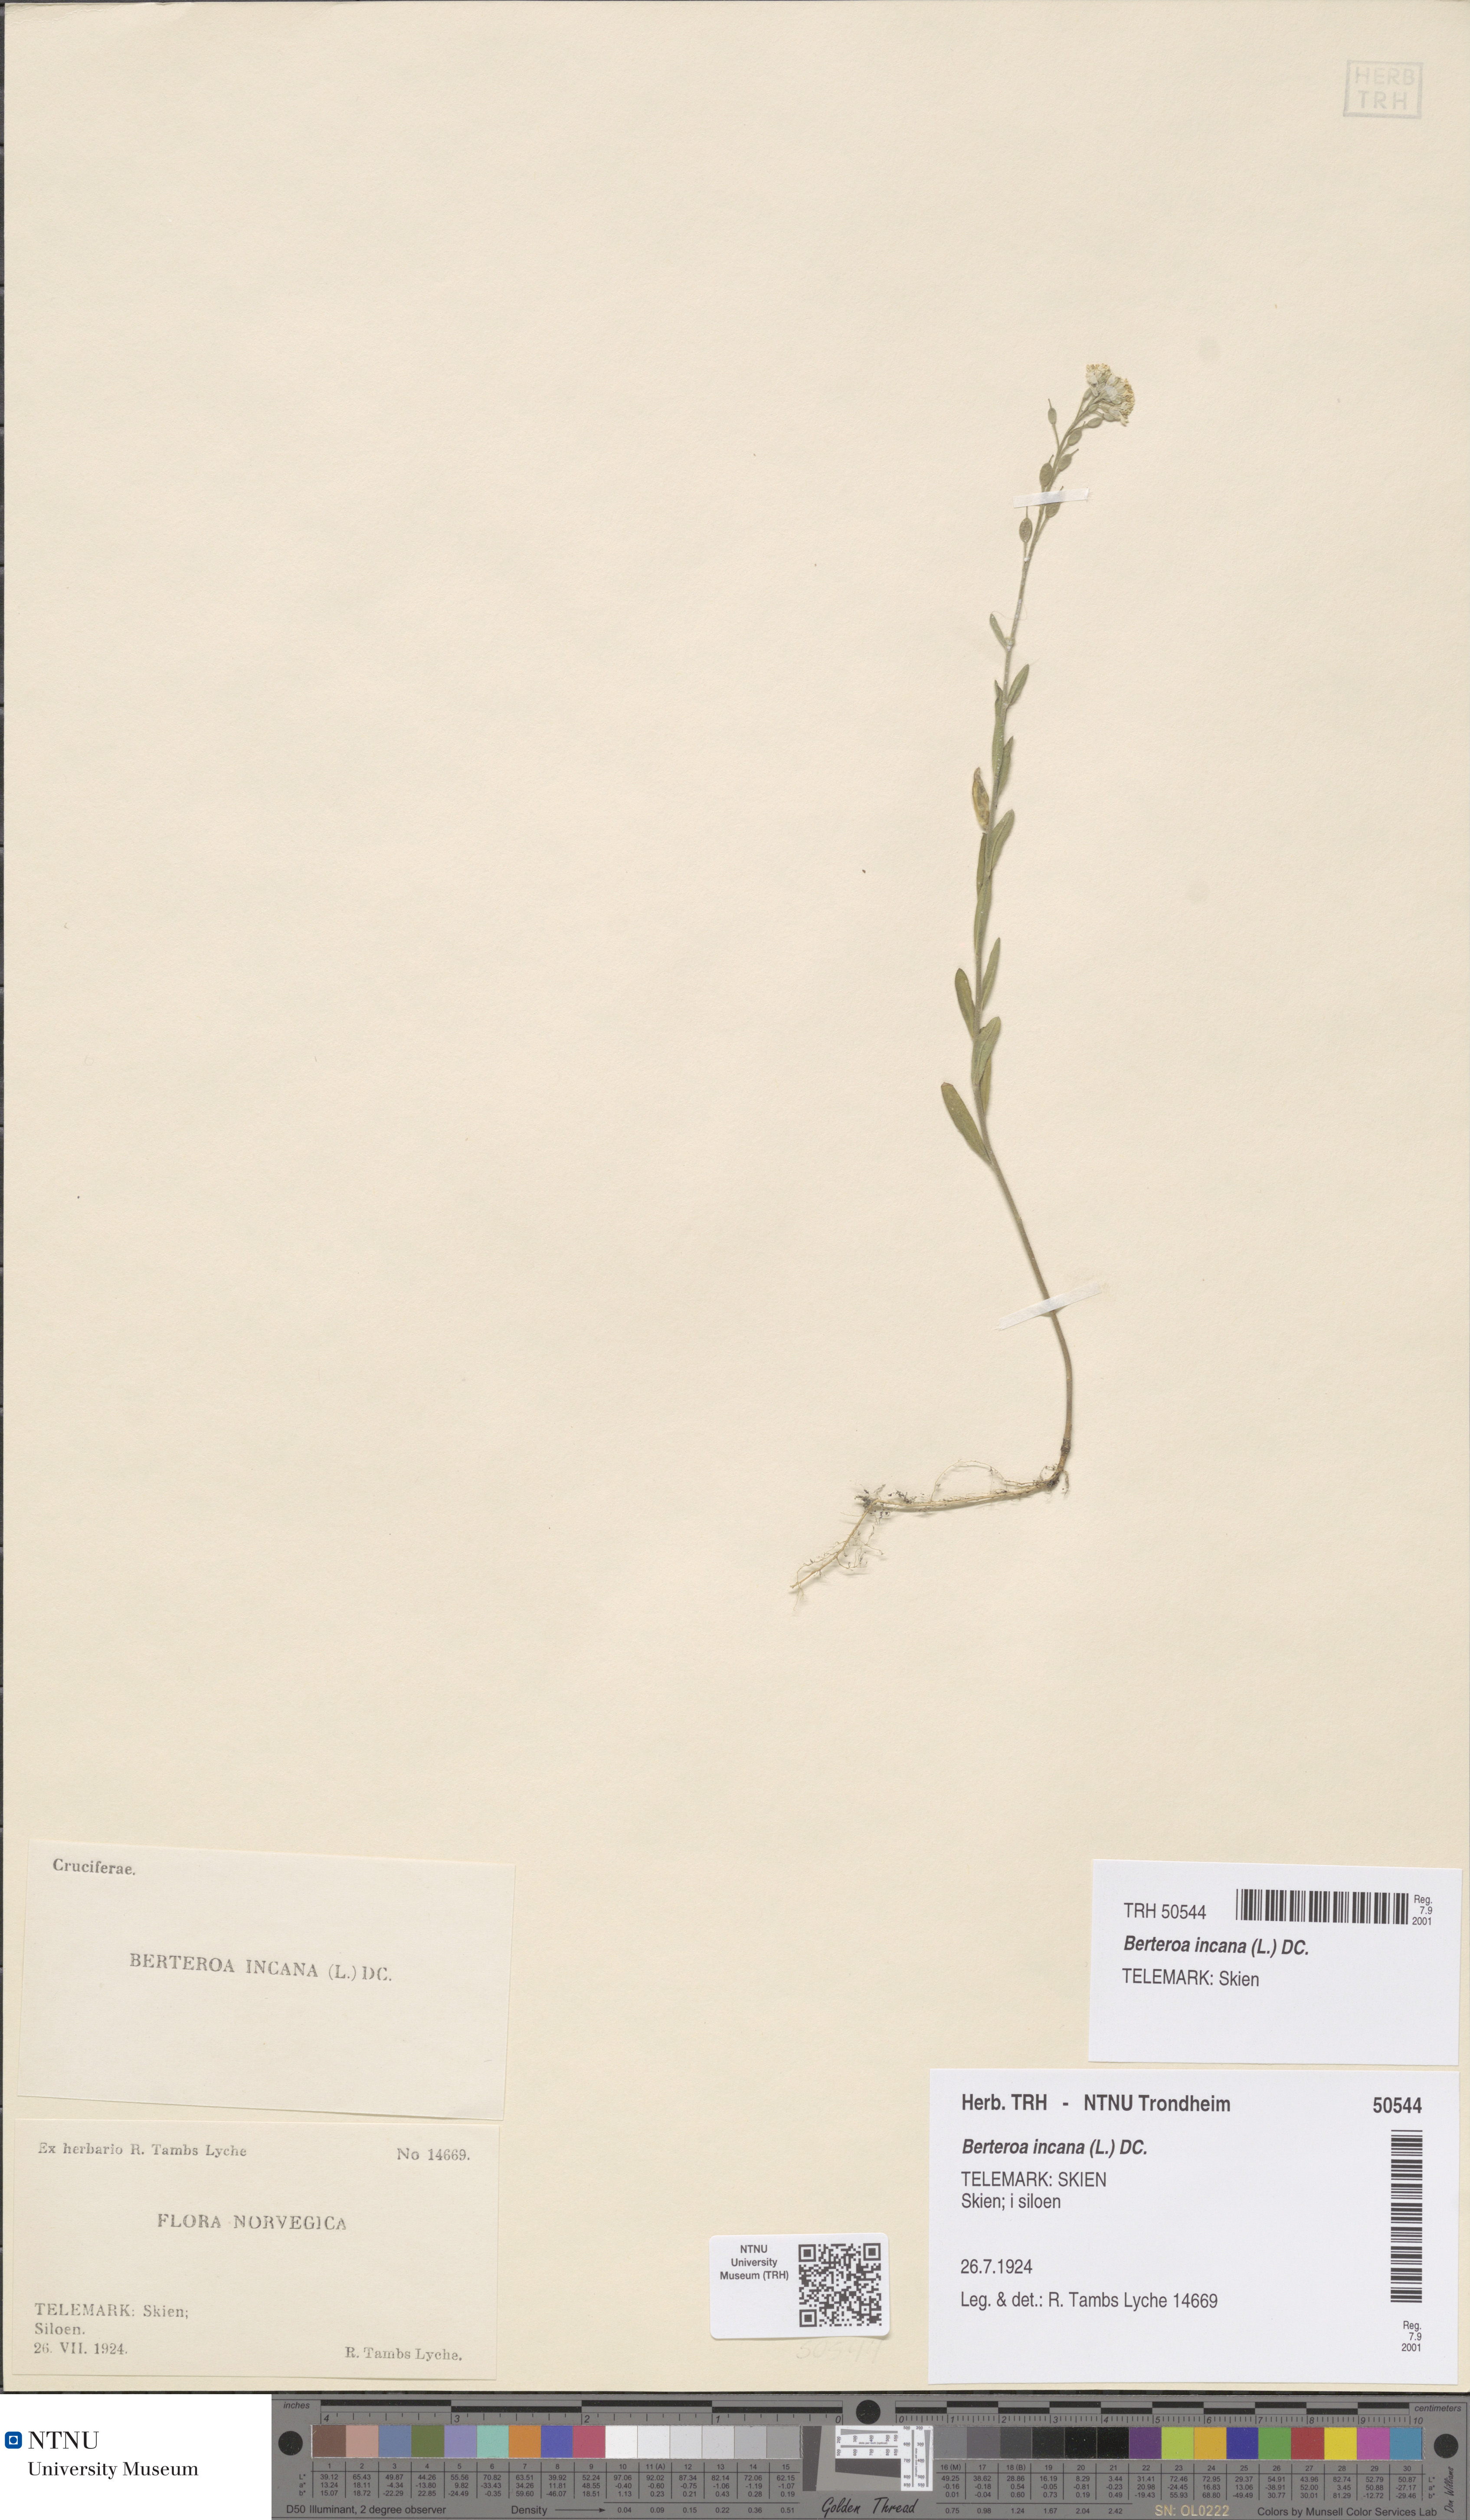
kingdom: Plantae
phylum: Tracheophyta
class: Magnoliopsida
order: Brassicales
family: Brassicaceae
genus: Berteroa
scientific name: Berteroa incana
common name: Hoary alison
